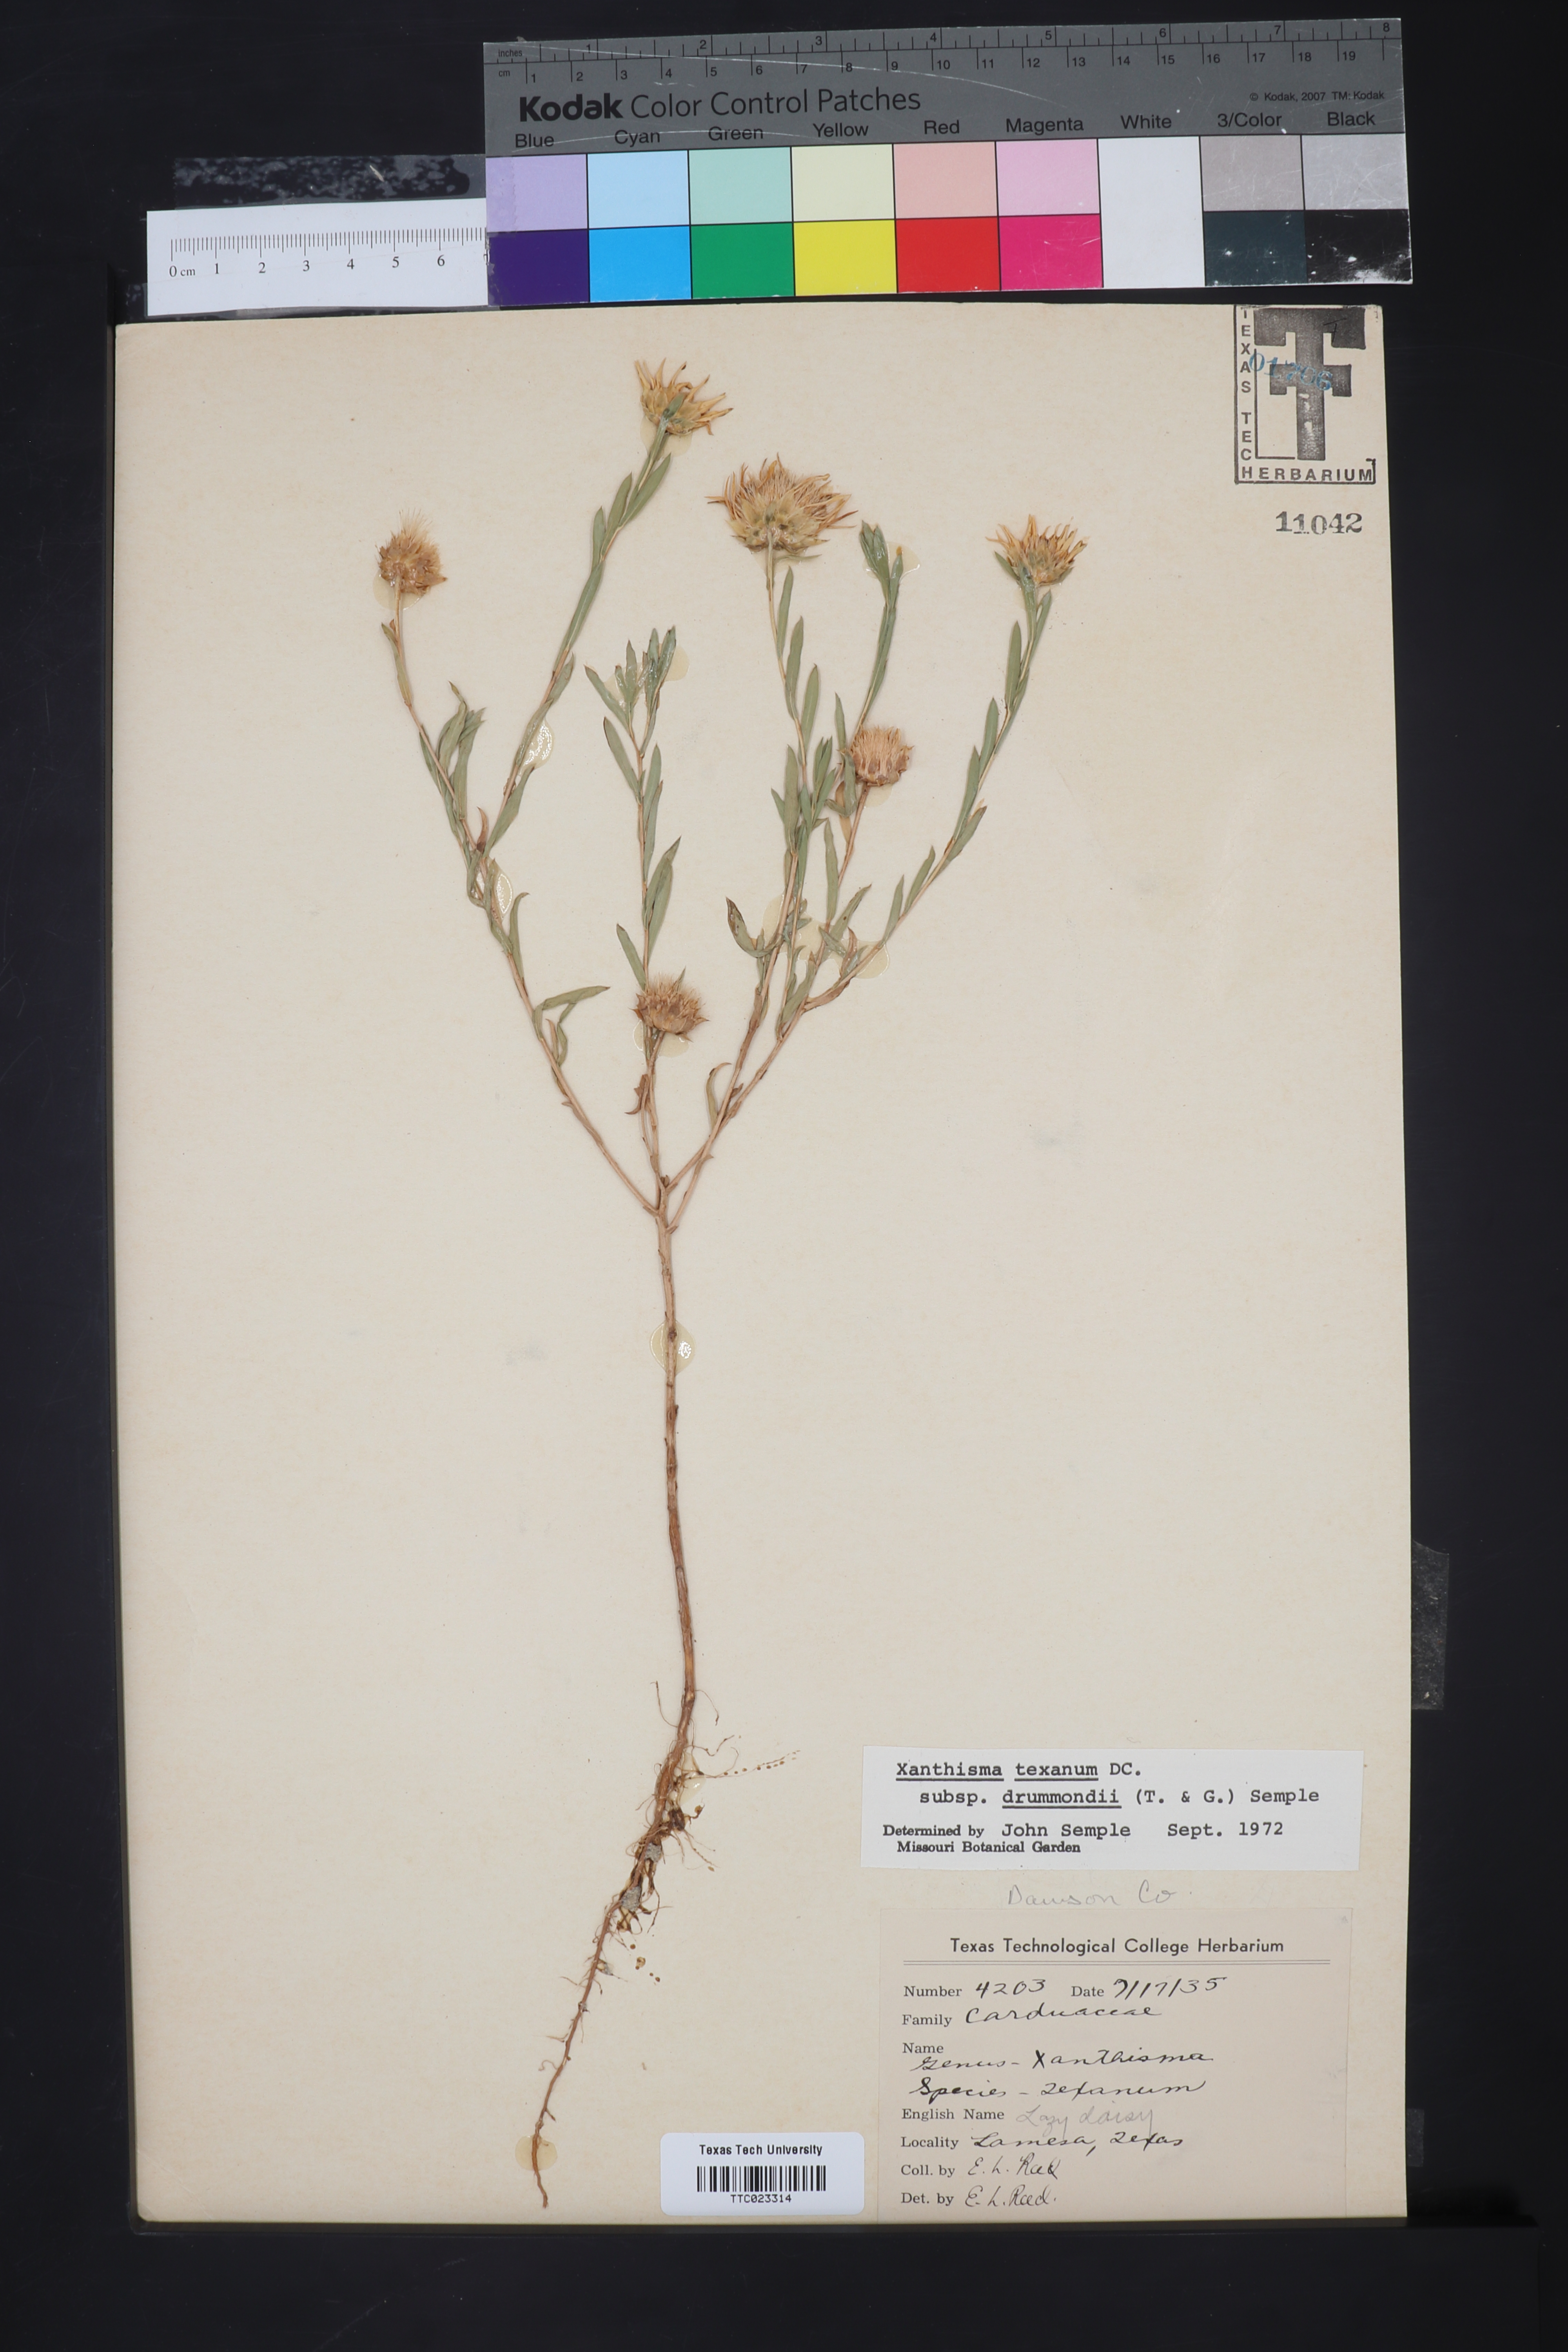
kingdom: Plantae
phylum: Tracheophyta
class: Magnoliopsida
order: Asterales
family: Asteraceae
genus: Xanthisma
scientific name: Xanthisma texanum
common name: Texas sleepy daisy
